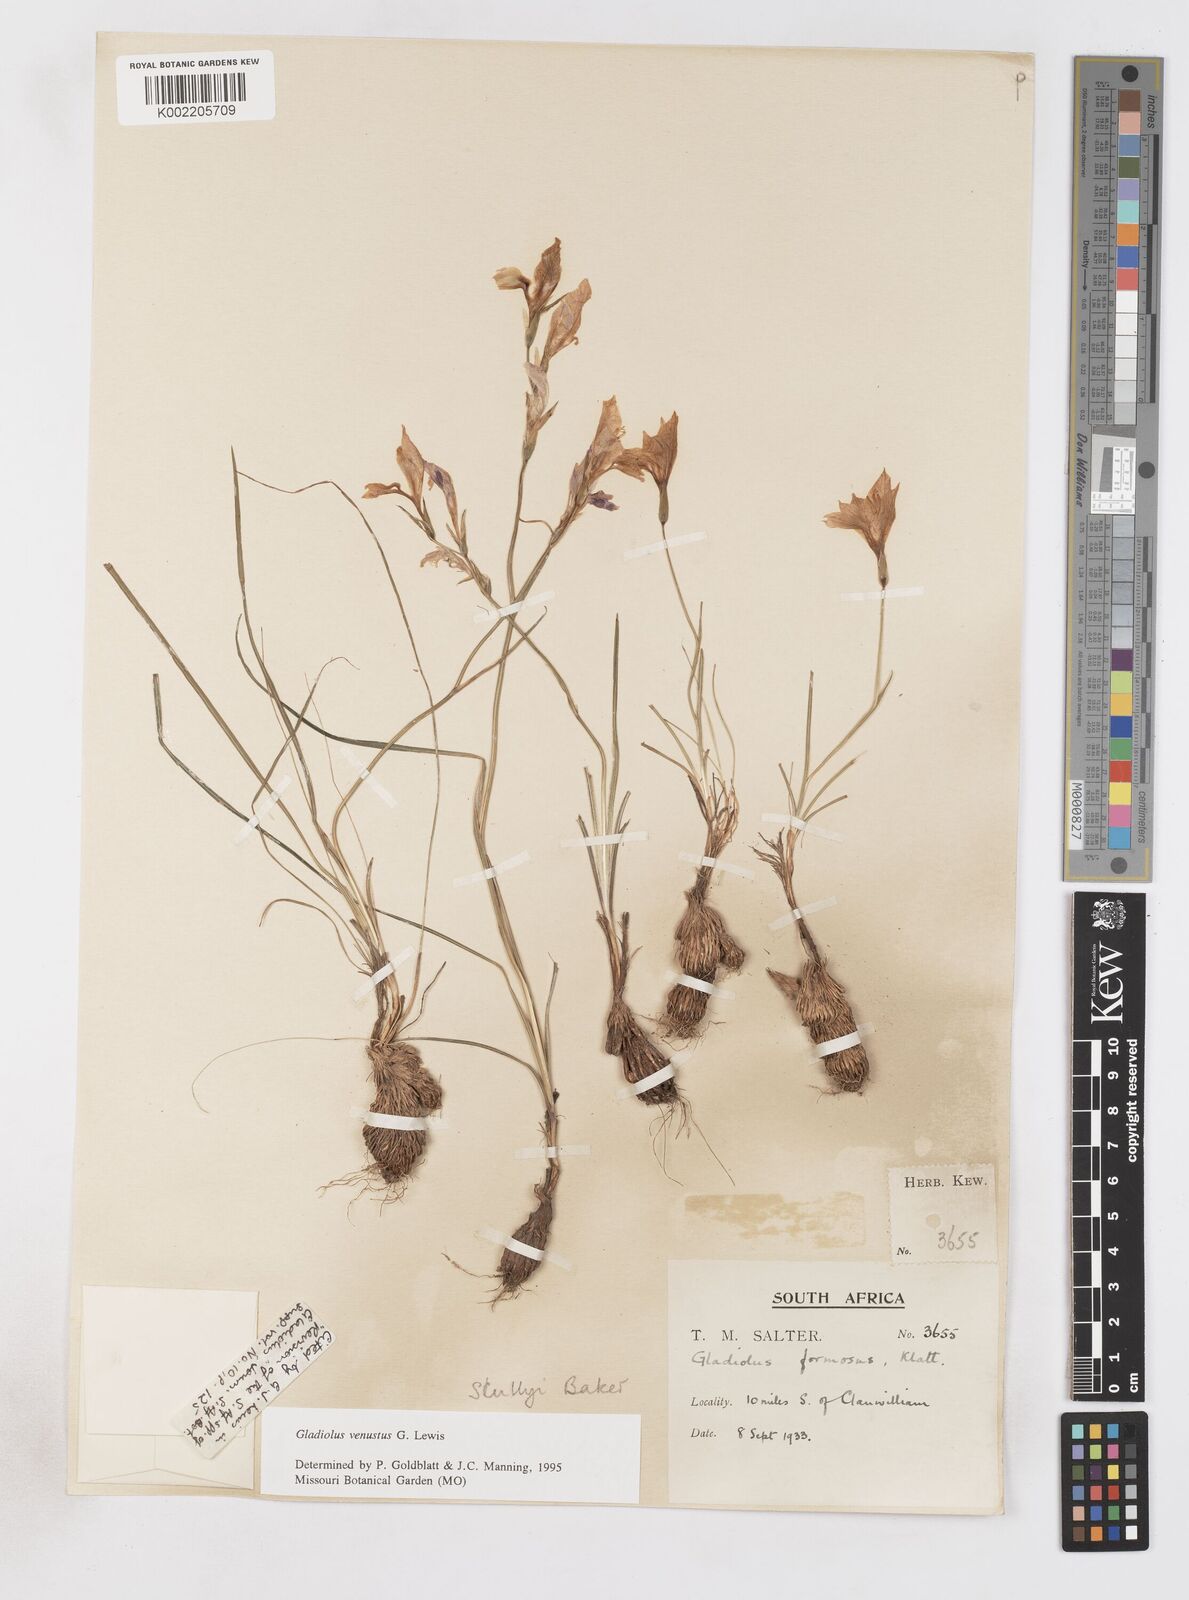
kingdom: Plantae
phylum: Tracheophyta
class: Liliopsida
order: Asparagales
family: Iridaceae
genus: Gladiolus
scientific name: Gladiolus venustus
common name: Purple kalkoentjie
